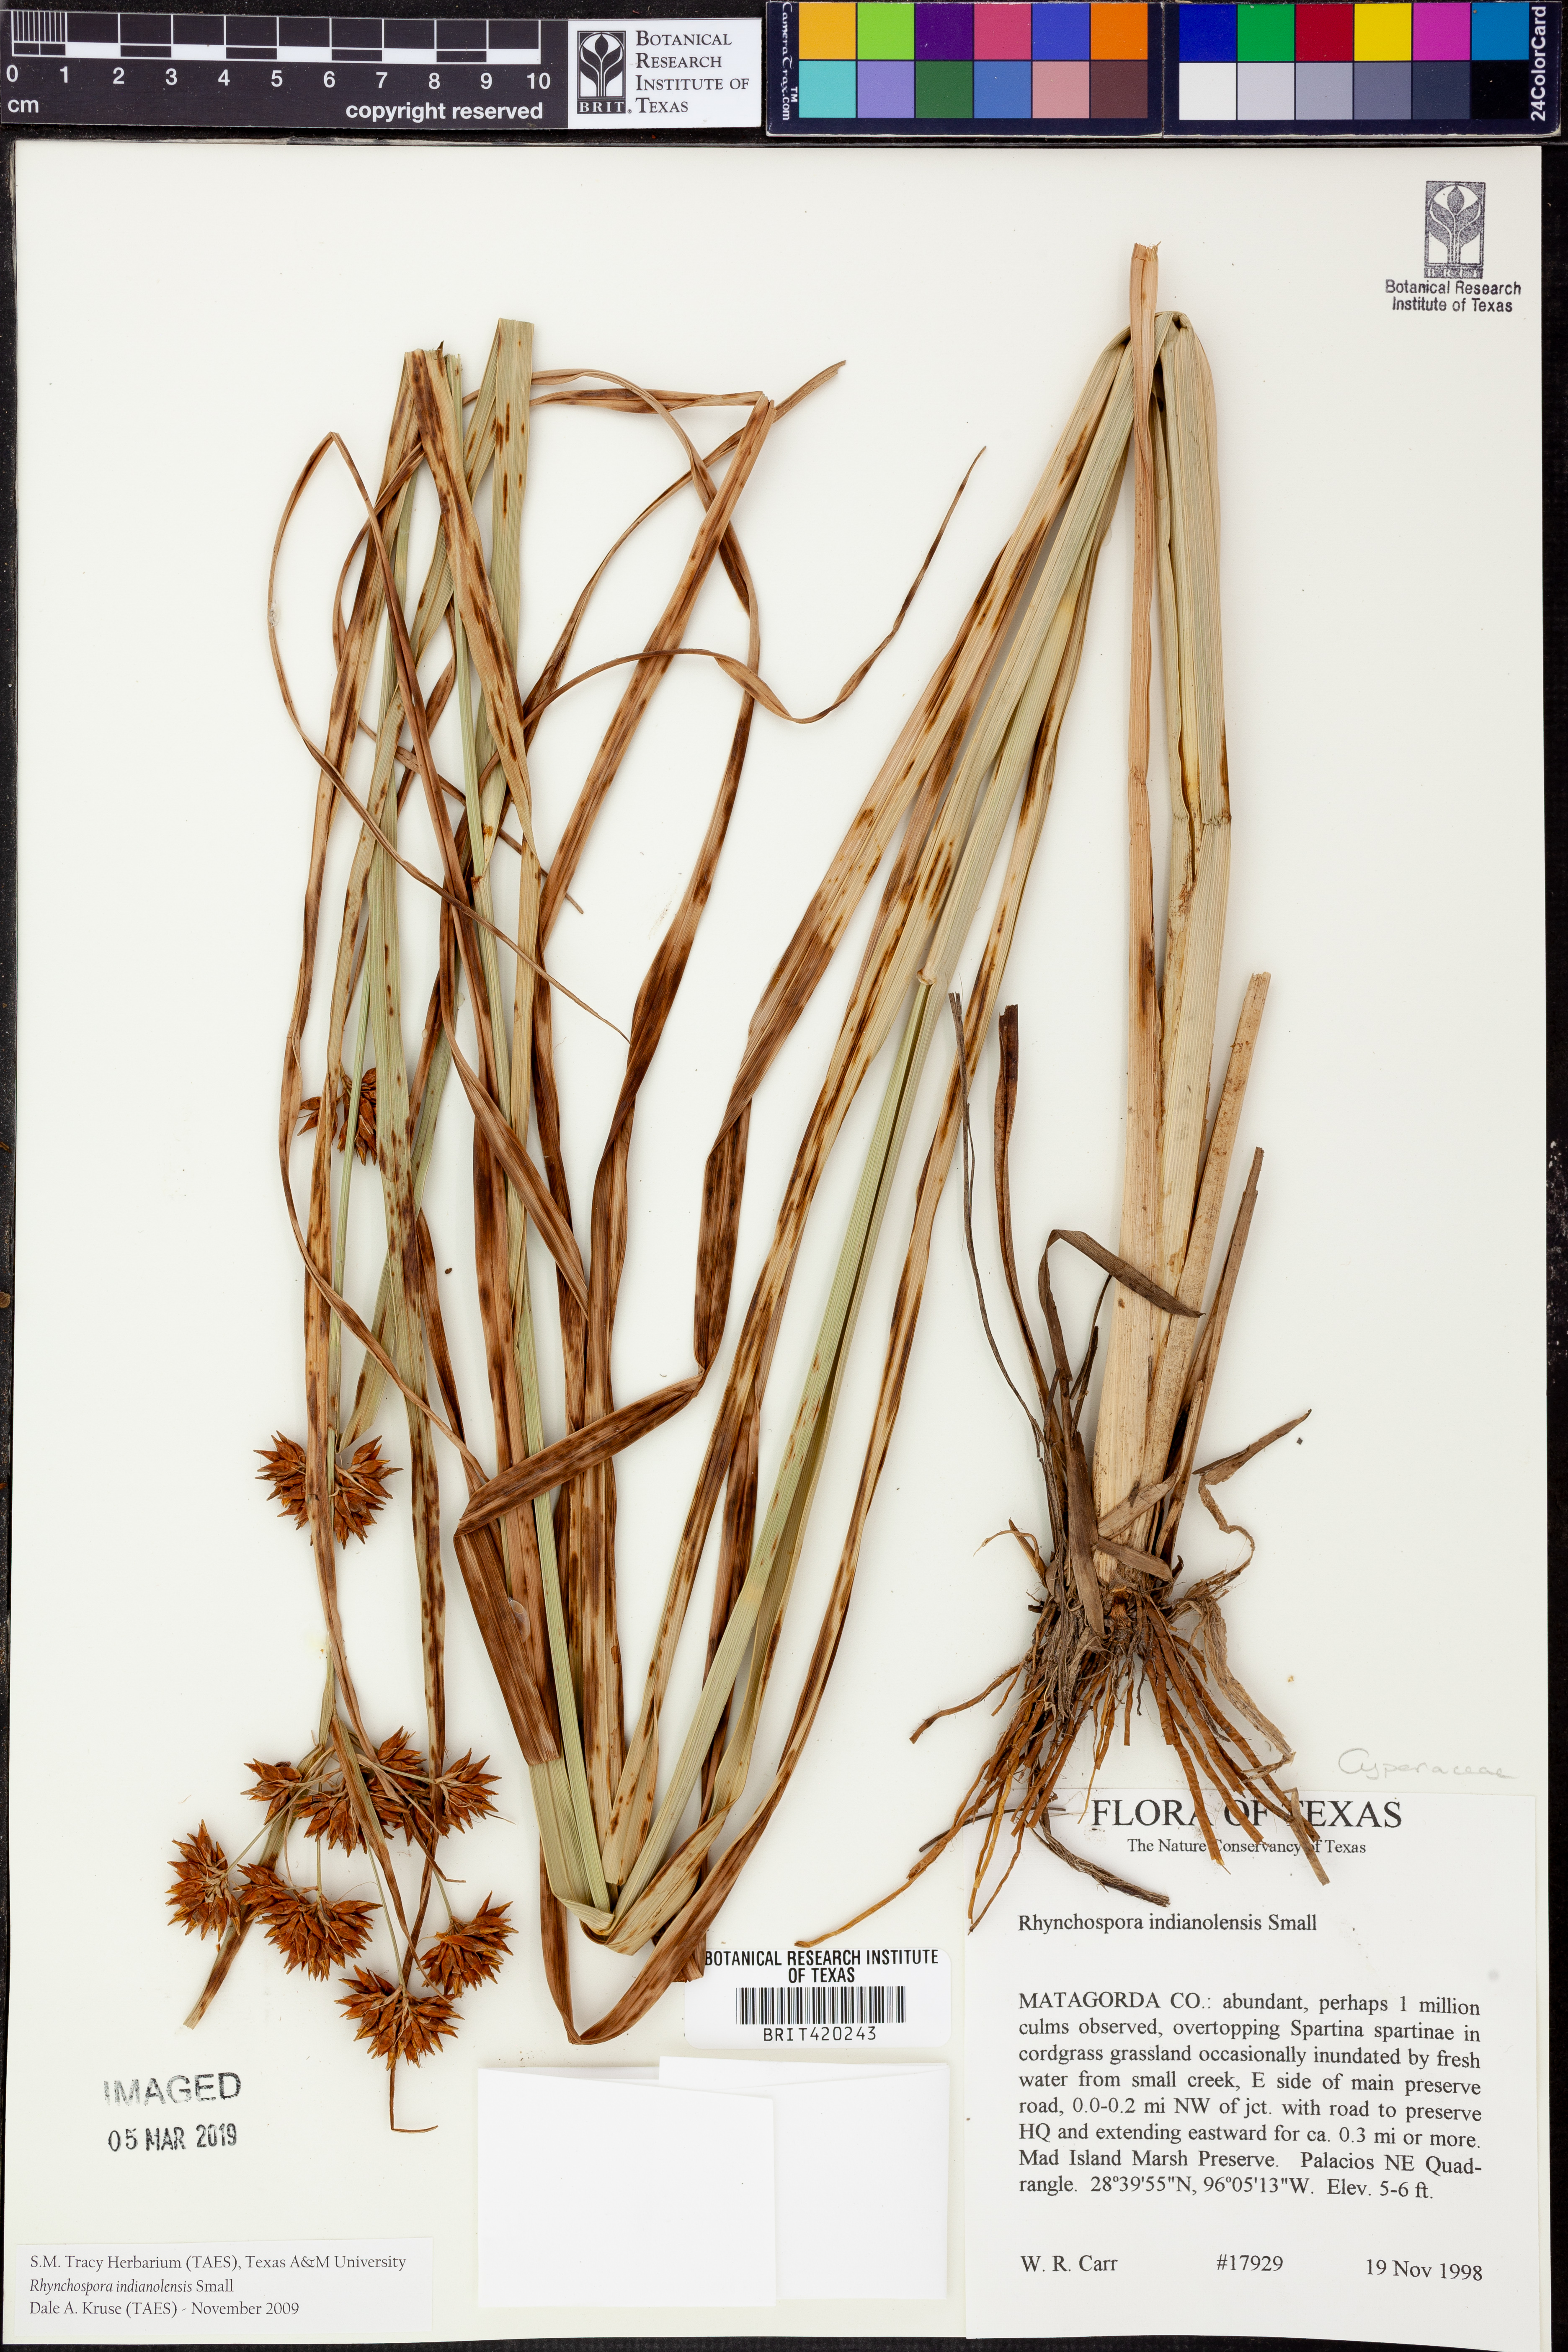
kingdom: Plantae
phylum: Tracheophyta
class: Liliopsida
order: Poales
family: Cyperaceae
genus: Rhynchospora
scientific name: Rhynchospora scutellata
